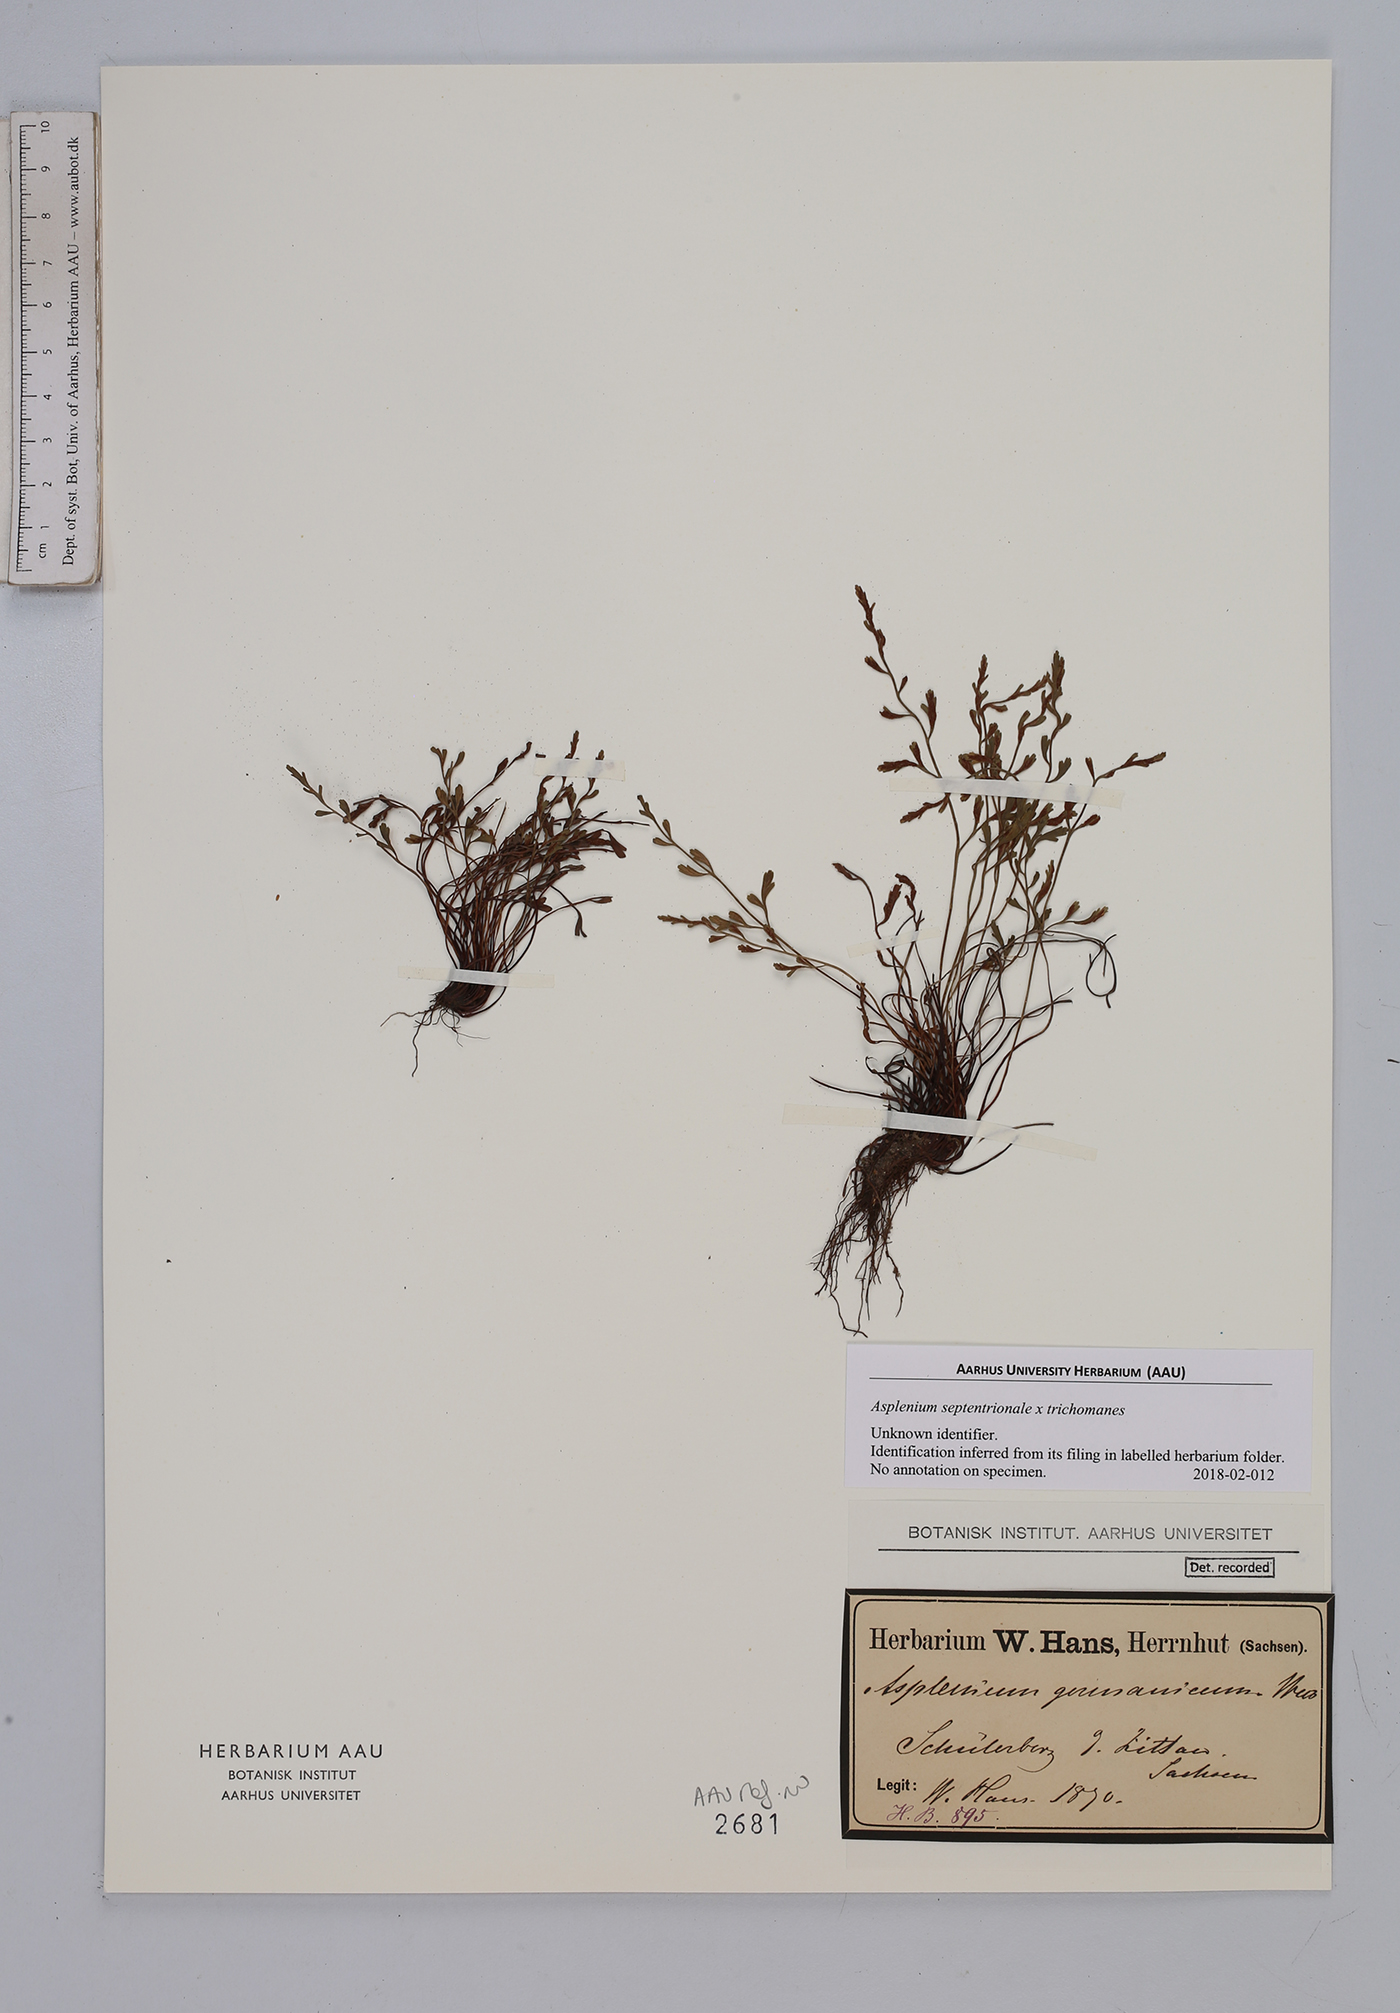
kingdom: Plantae
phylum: Tracheophyta
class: Polypodiopsida
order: Polypodiales
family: Aspleniaceae
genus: Asplenium
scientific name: Asplenium
